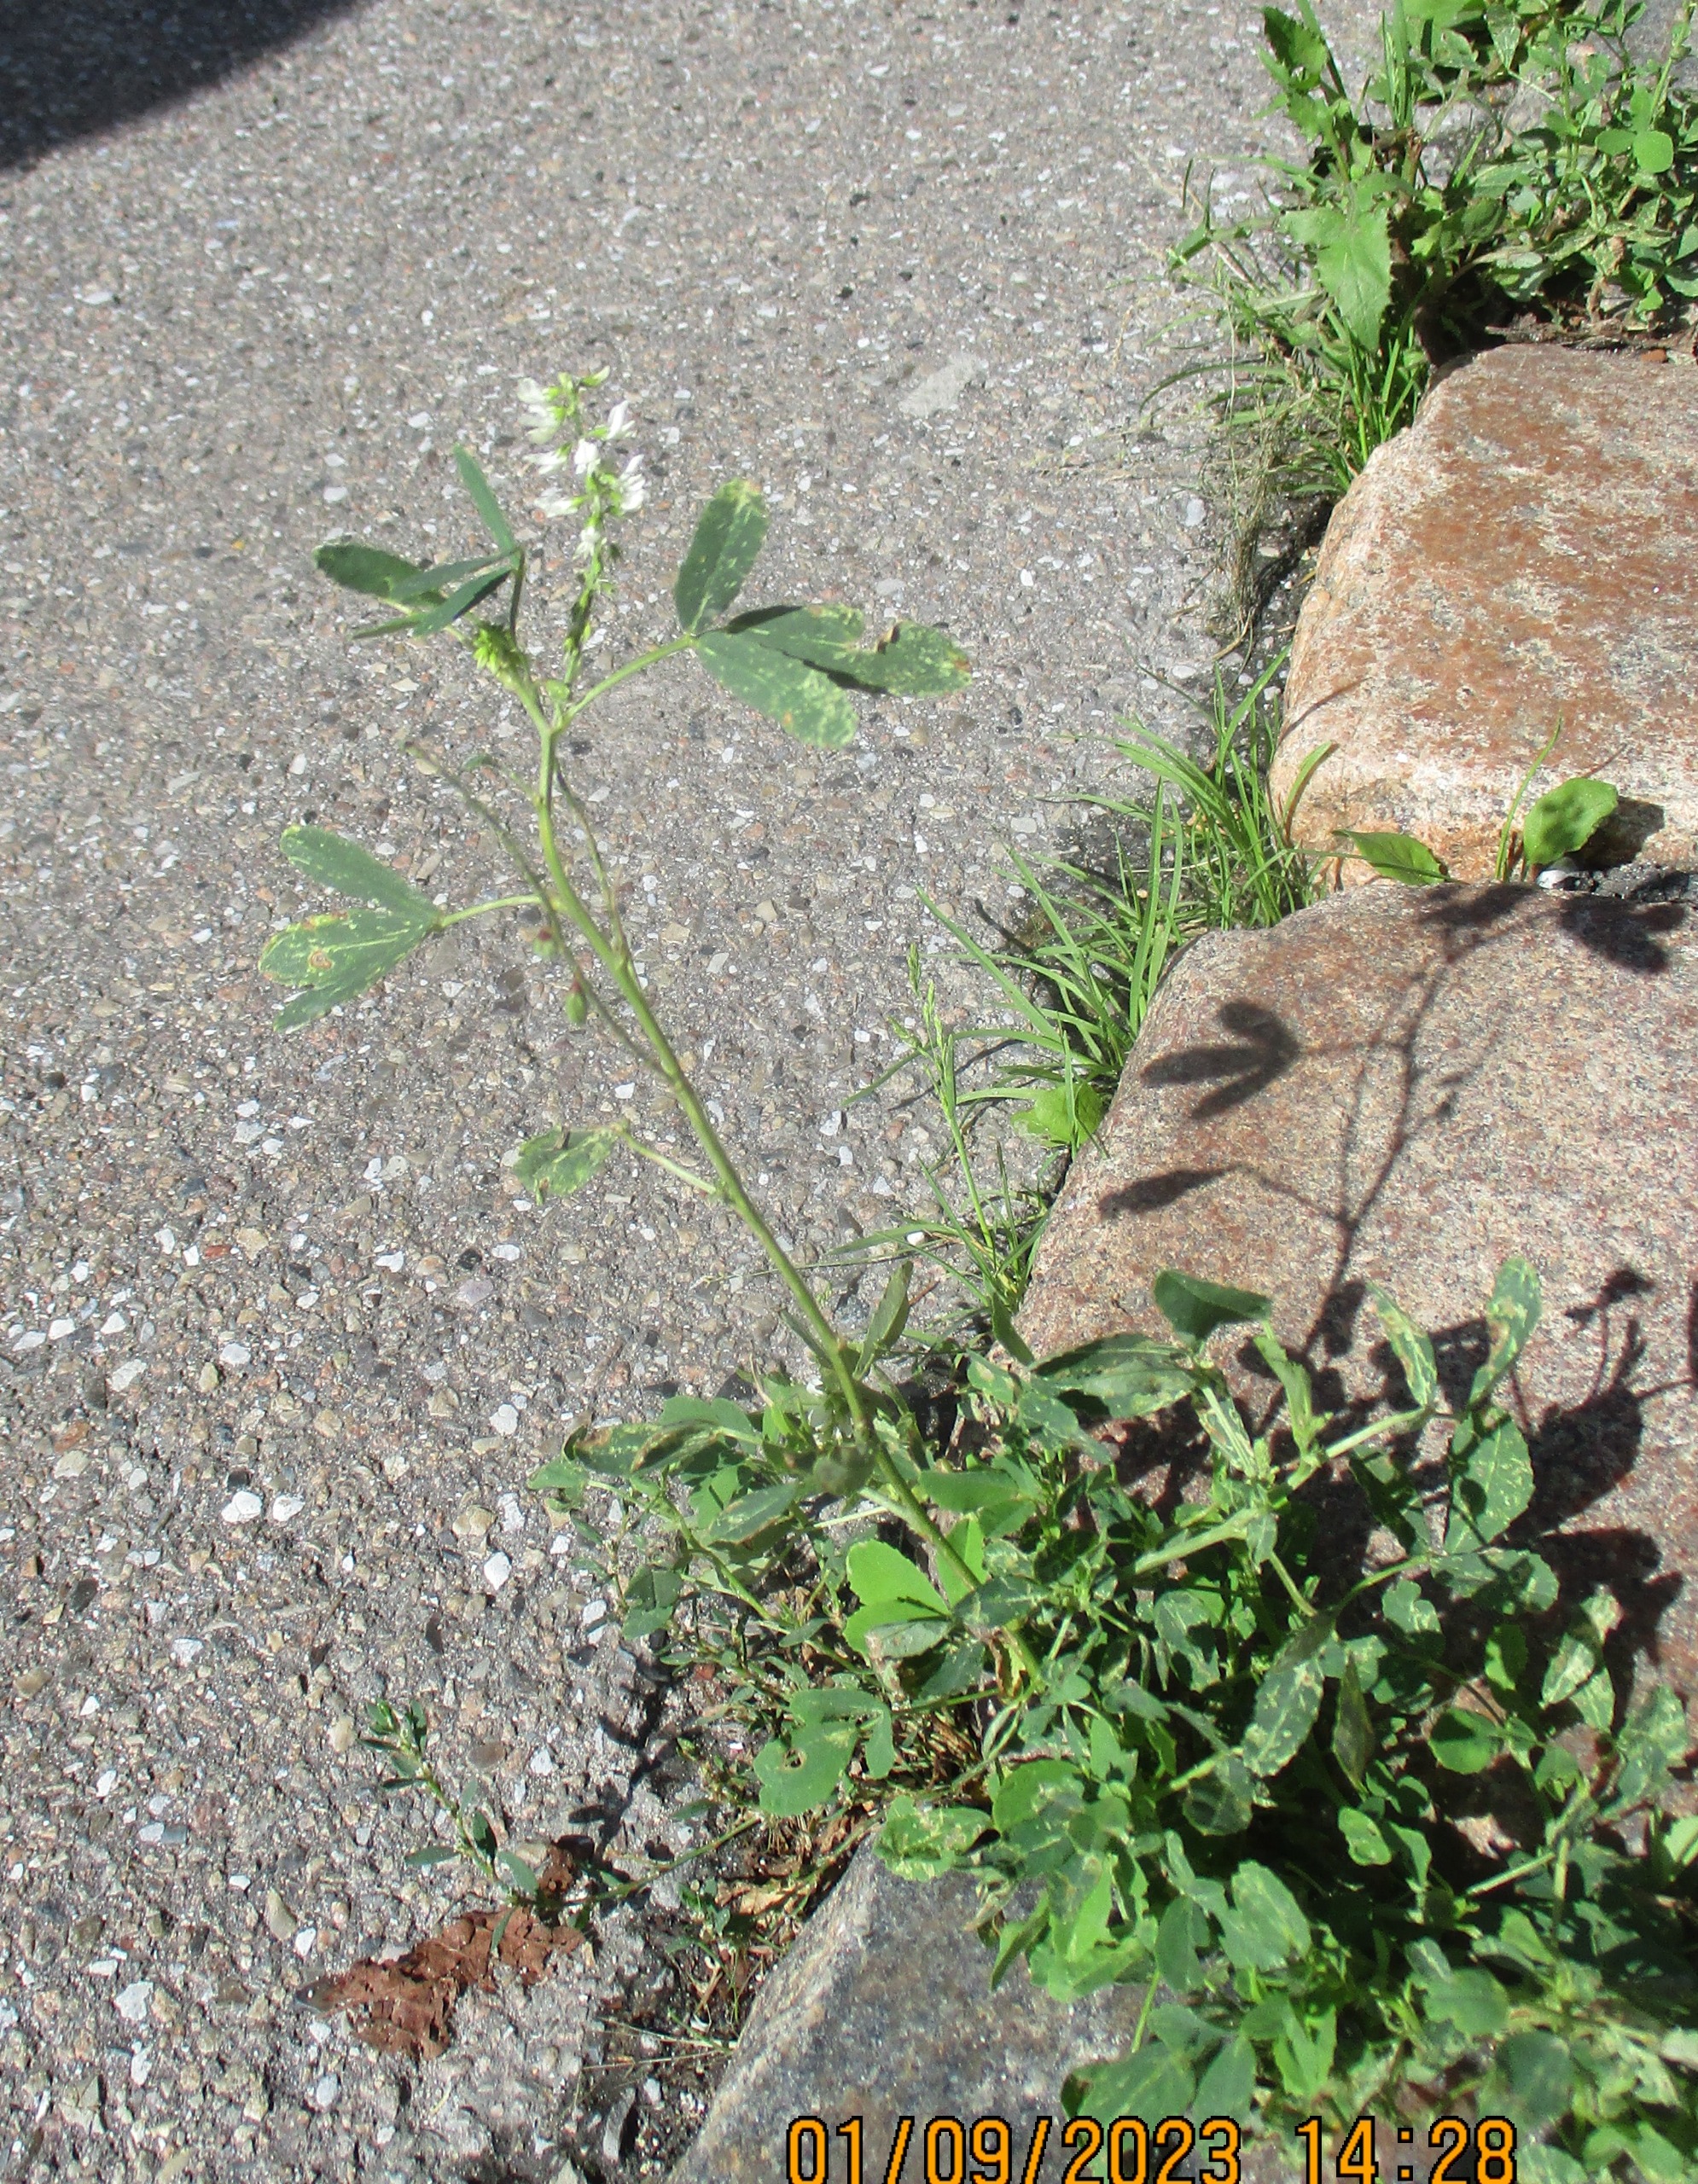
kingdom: Plantae
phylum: Tracheophyta
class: Magnoliopsida
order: Fabales
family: Fabaceae
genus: Melilotus
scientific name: Melilotus albus
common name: Hvid stenkløver
